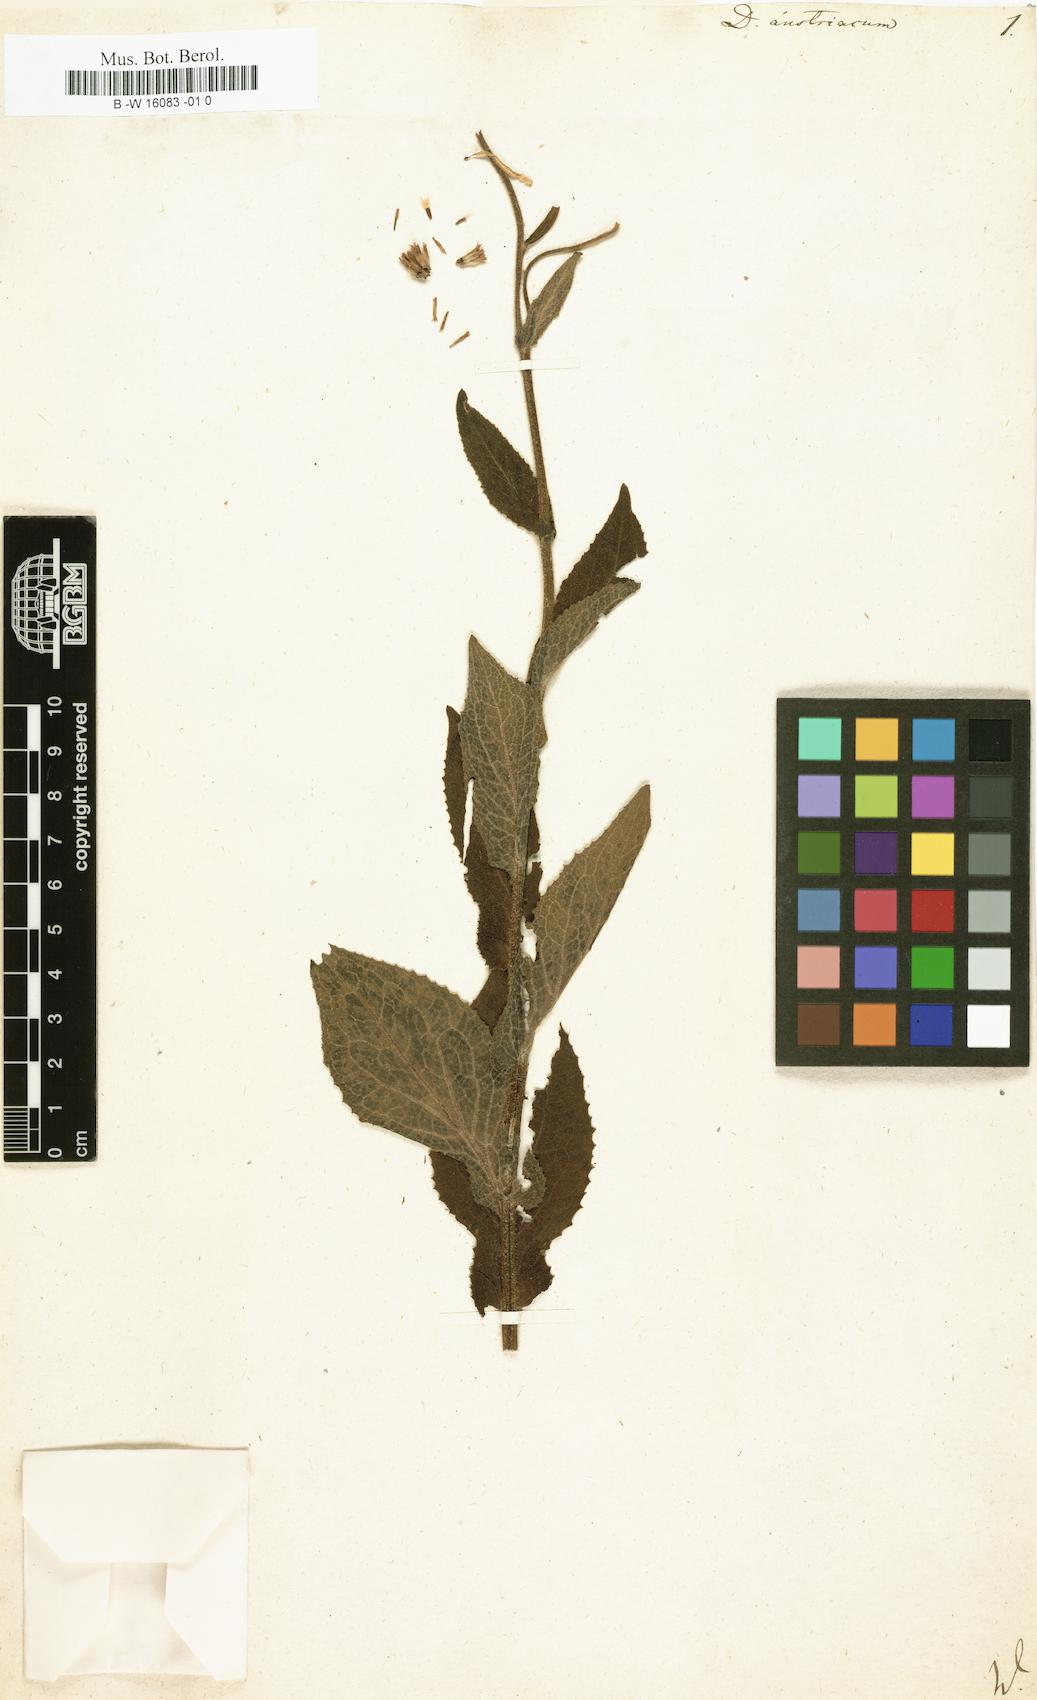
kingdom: Plantae
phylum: Tracheophyta
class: Magnoliopsida
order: Asterales
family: Asteraceae
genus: Doronicum
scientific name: Doronicum austriacum
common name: Austrian leopard's-bane
